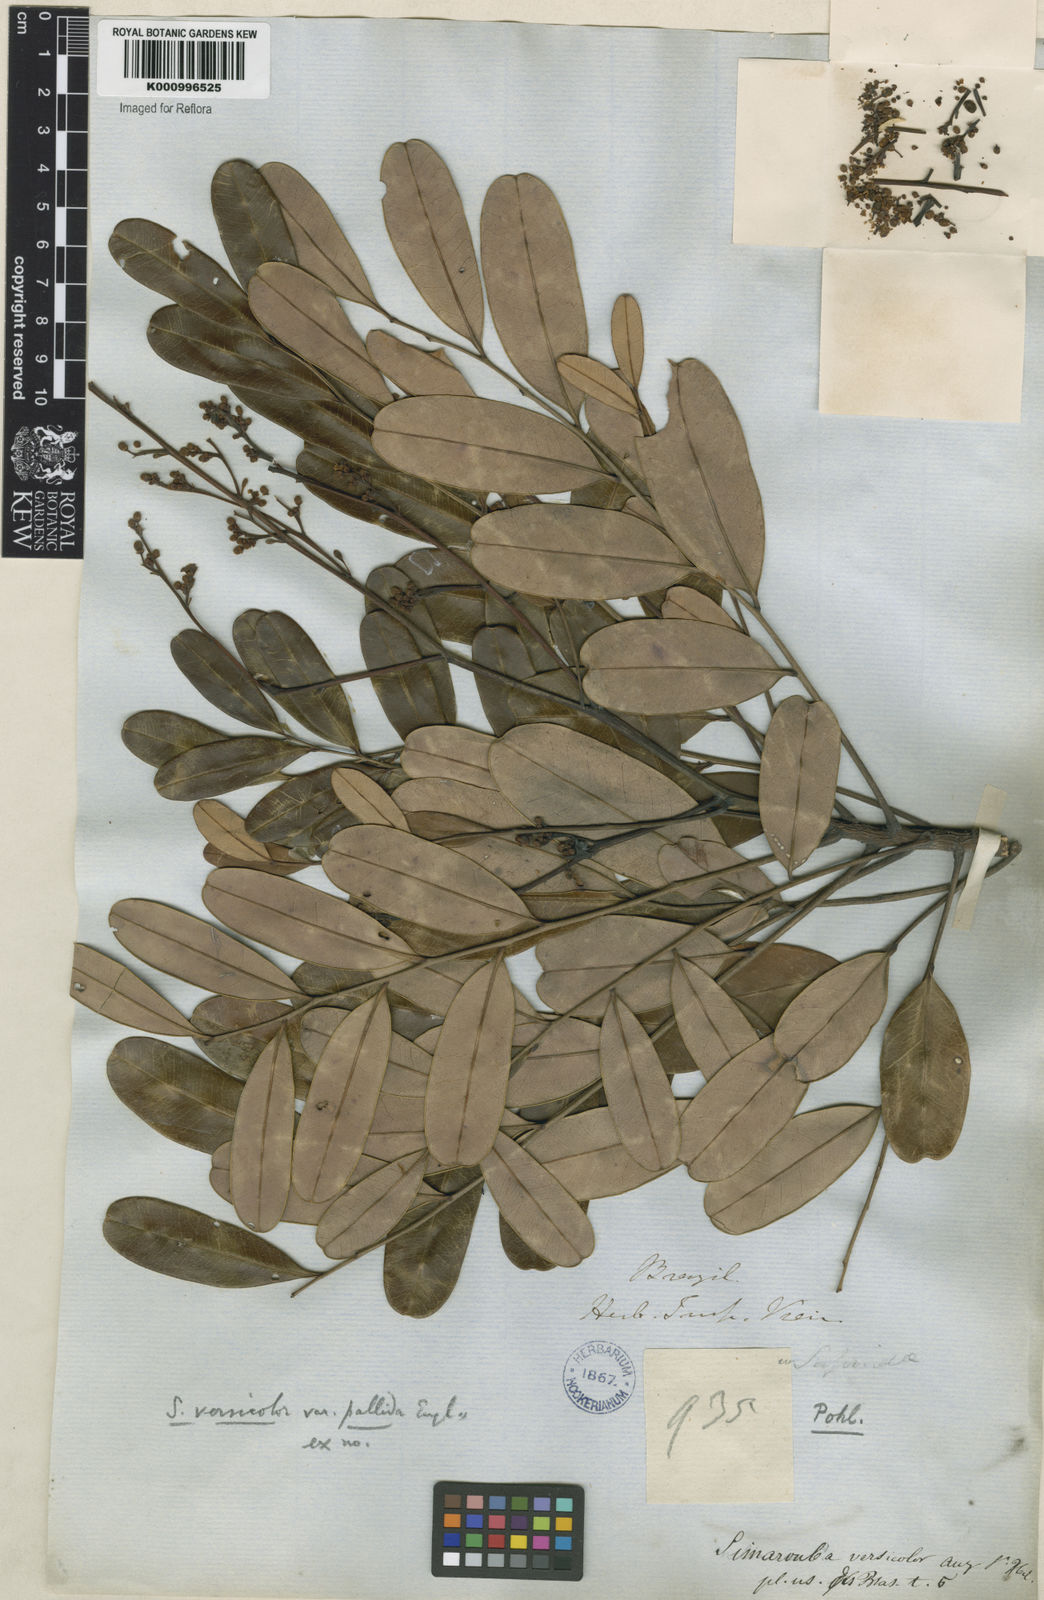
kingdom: Plantae
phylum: Tracheophyta
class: Magnoliopsida
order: Sapindales
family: Simaroubaceae
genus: Simarouba
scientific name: Simarouba versicolor
